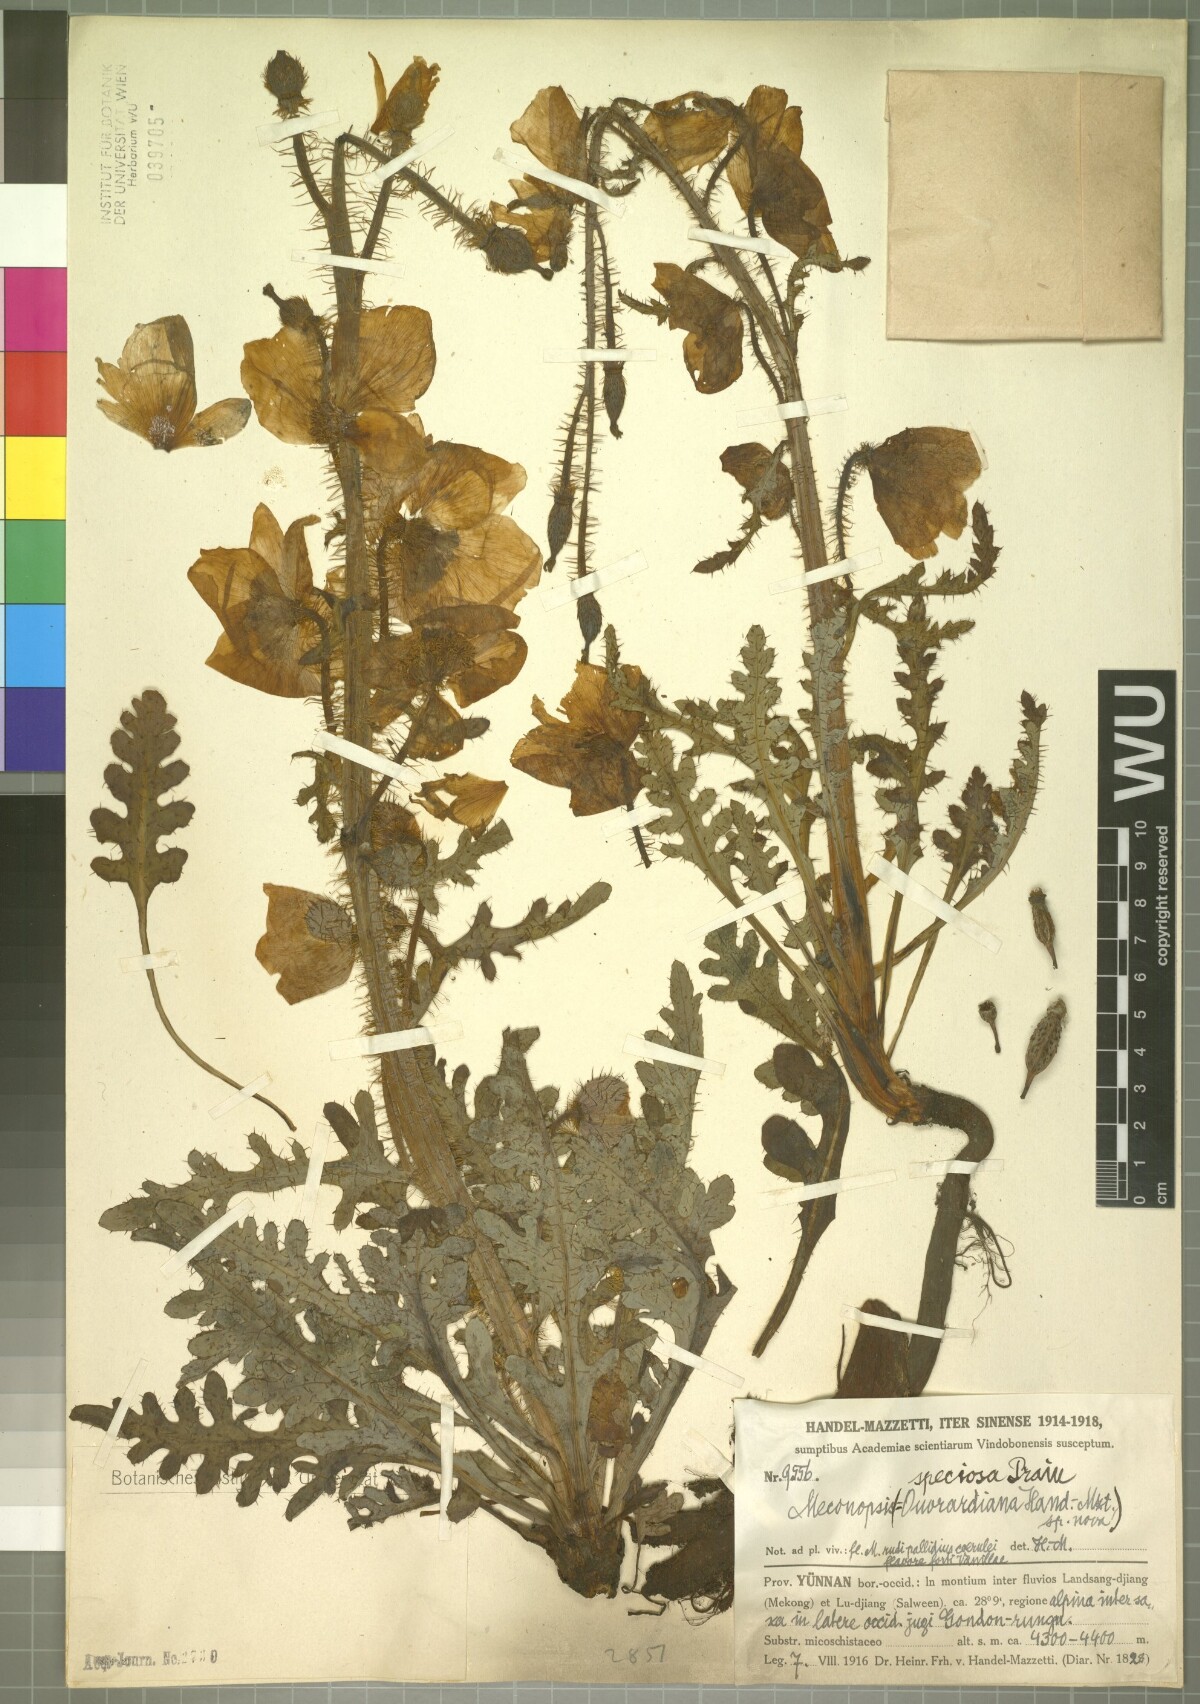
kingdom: Plantae
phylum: Tracheophyta
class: Magnoliopsida
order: Ranunculales
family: Papaveraceae
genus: Meconopsis
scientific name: Meconopsis speciosa
